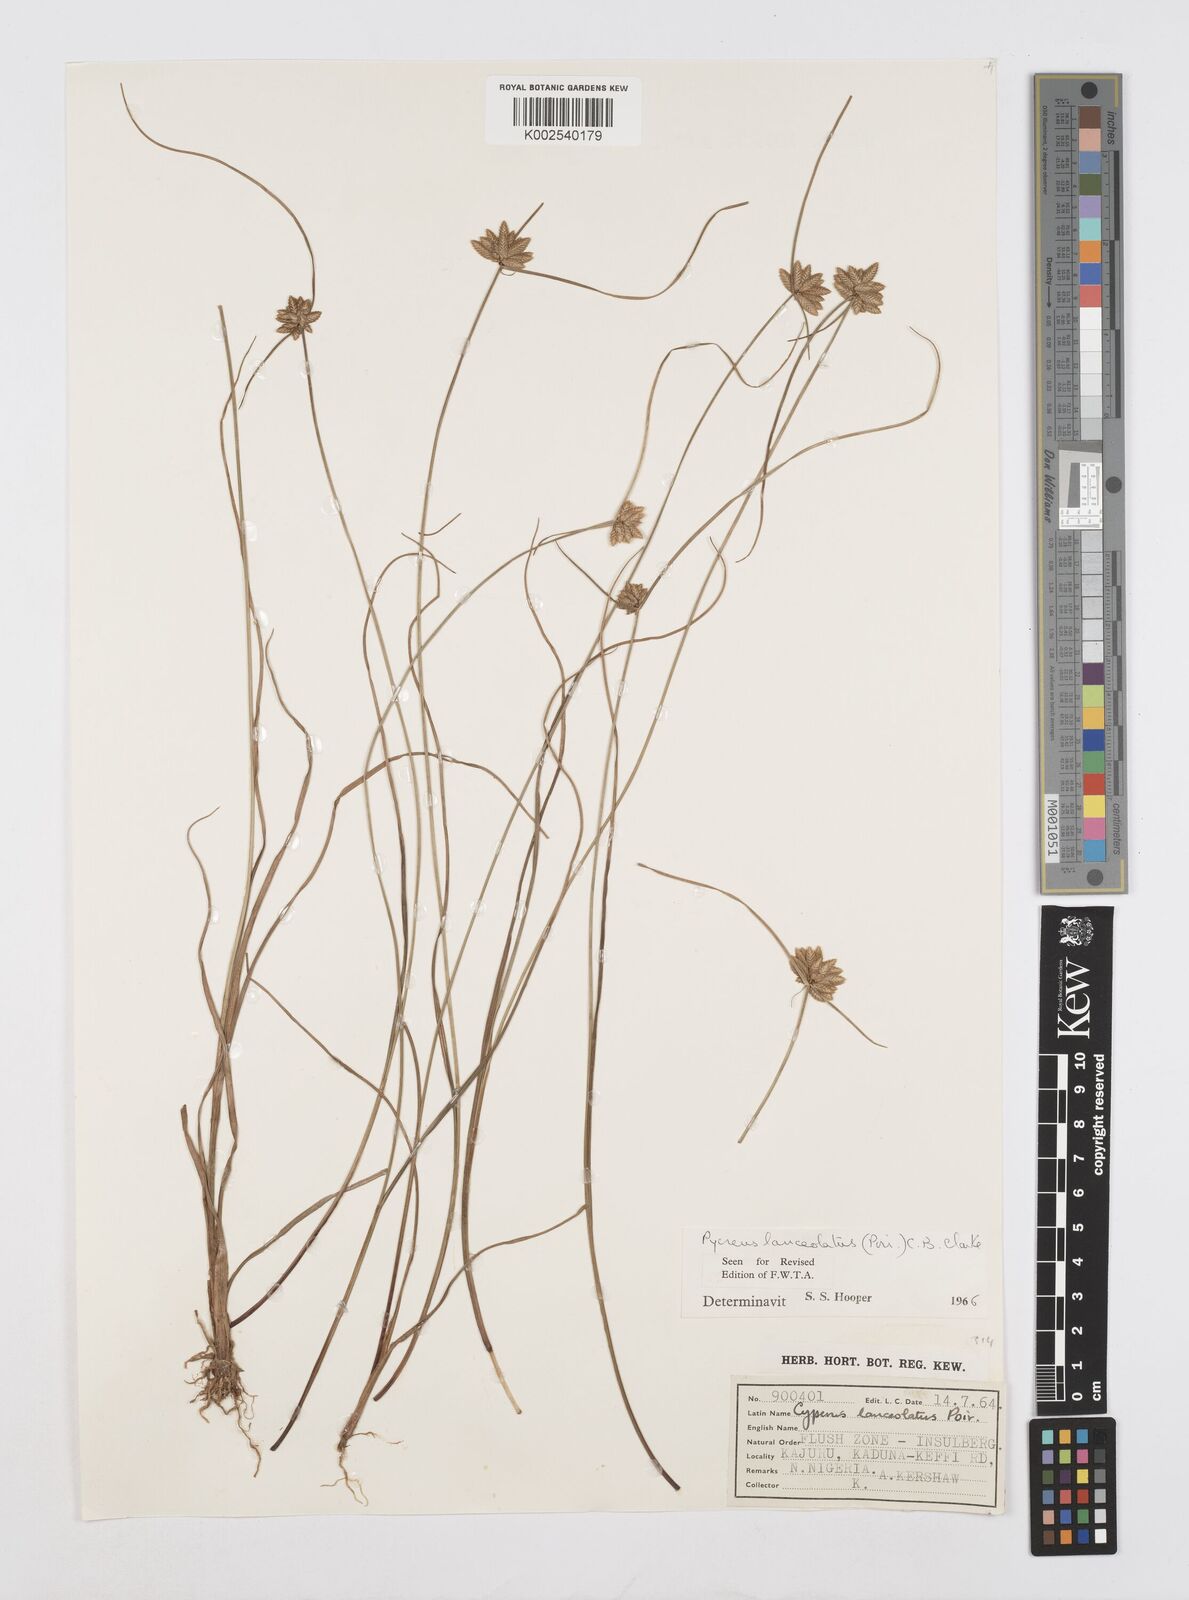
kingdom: Plantae
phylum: Tracheophyta
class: Liliopsida
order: Poales
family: Cyperaceae
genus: Cyperus
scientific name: Cyperus
